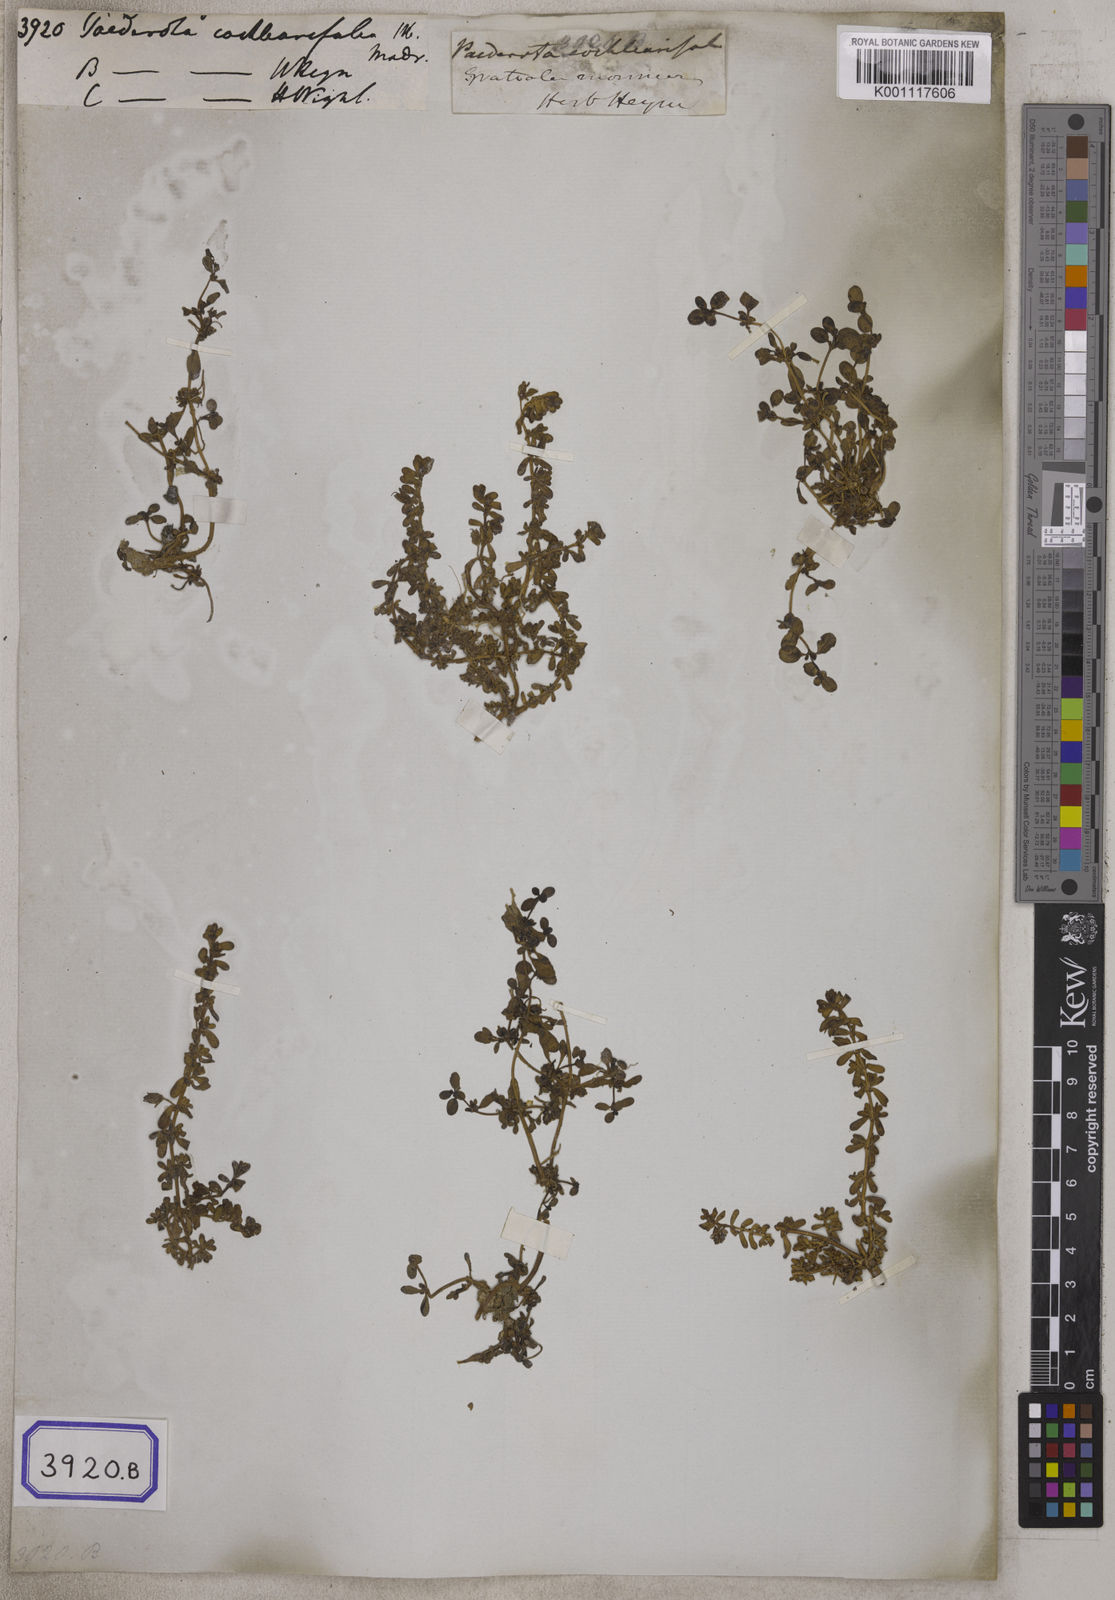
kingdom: Plantae
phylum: Tracheophyta
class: Magnoliopsida
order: Lamiales
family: Plantaginaceae
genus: Paederota
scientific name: Paederota
